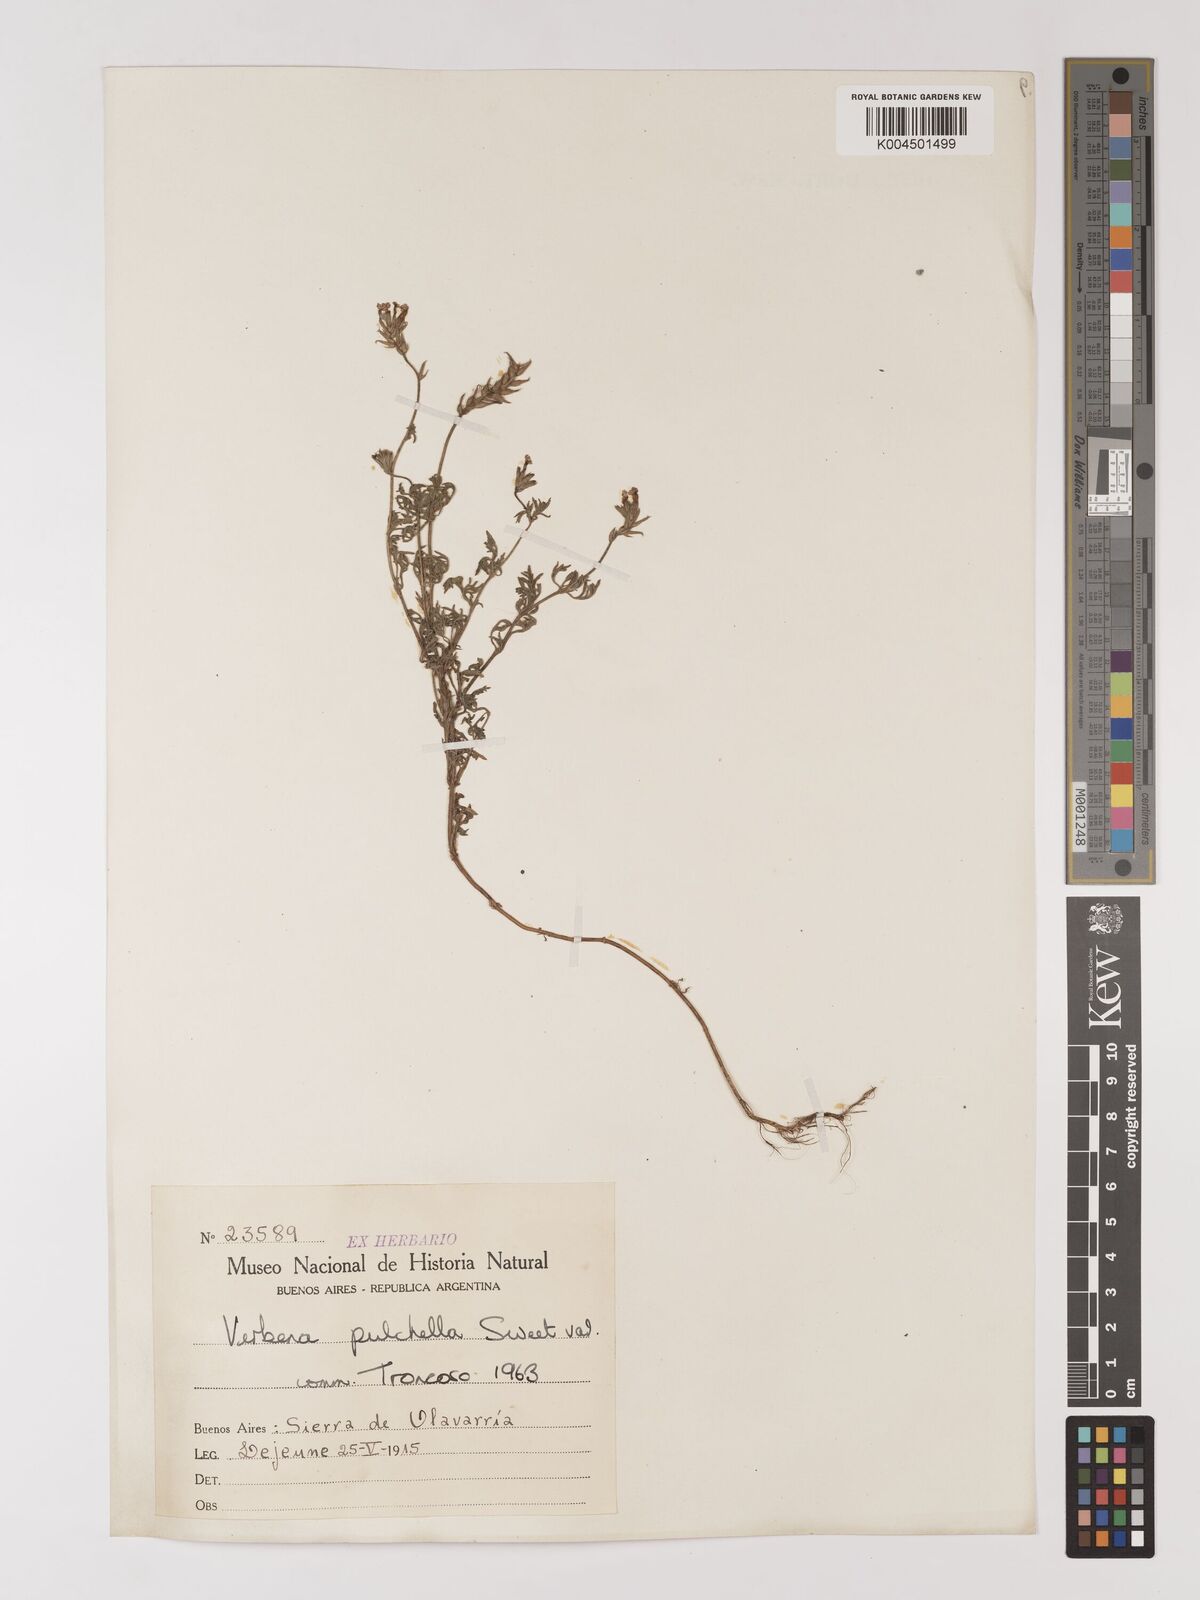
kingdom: Plantae
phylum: Tracheophyta
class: Magnoliopsida
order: Lamiales
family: Verbenaceae
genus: Verbena
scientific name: Verbena tenera
